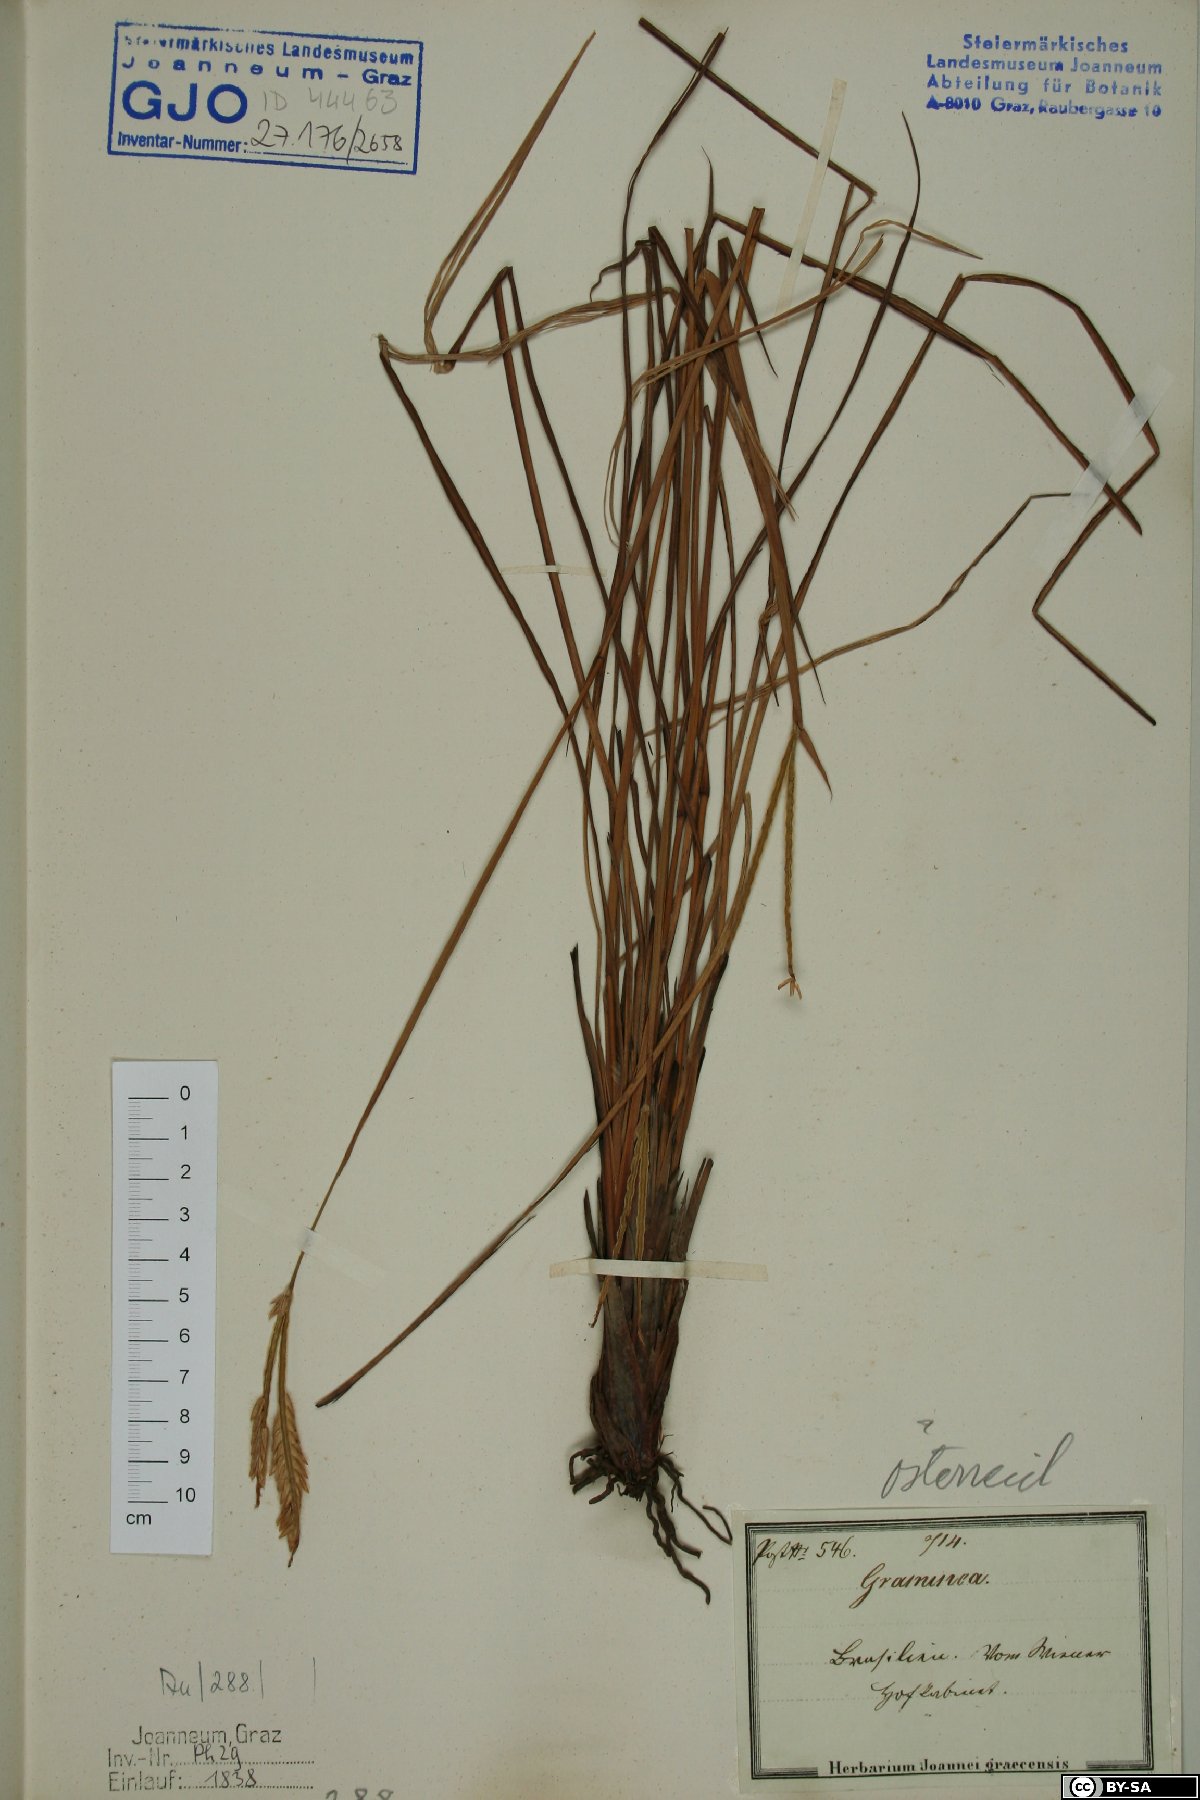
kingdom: Plantae
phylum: Tracheophyta
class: Liliopsida
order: Poales
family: Poaceae
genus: Chloris
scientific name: Chloris
